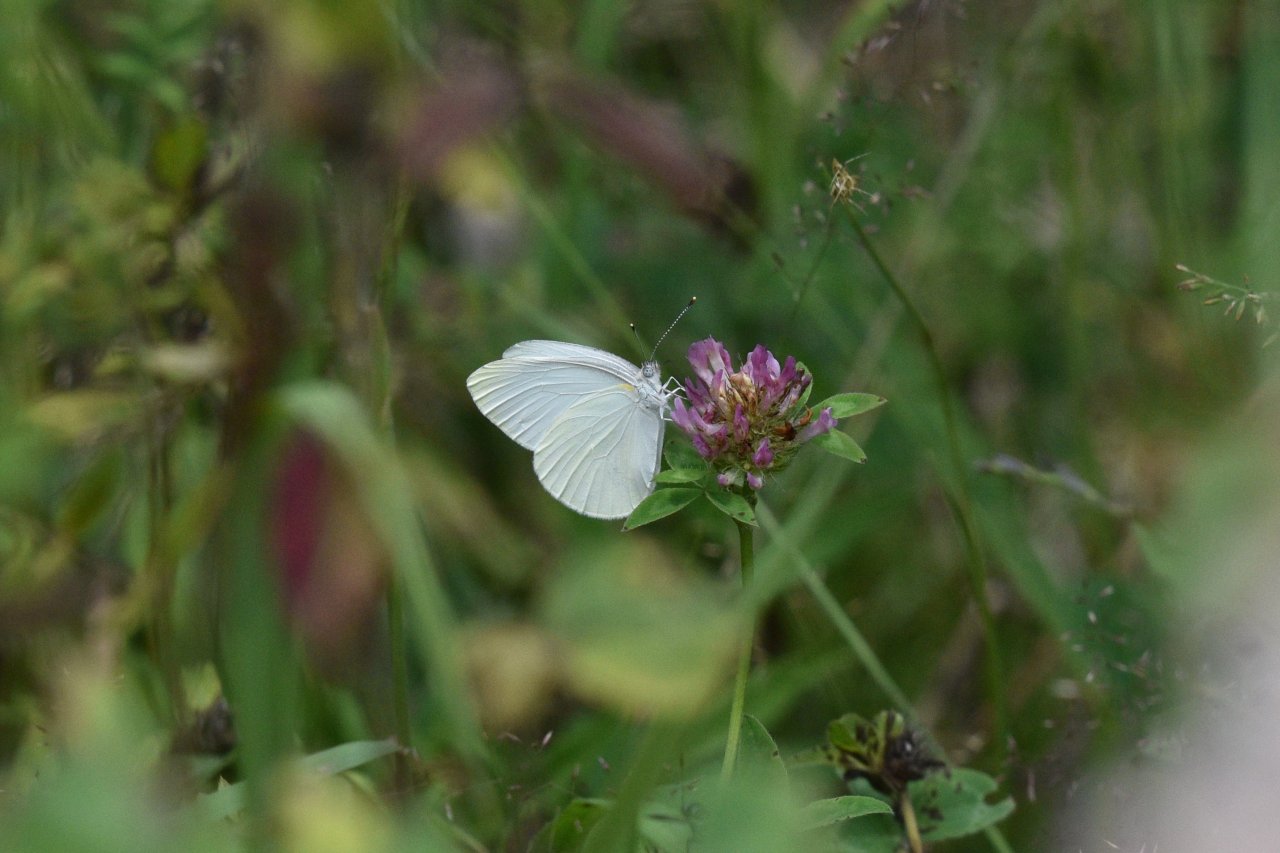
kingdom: Animalia
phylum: Arthropoda
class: Insecta
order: Lepidoptera
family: Pieridae
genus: Pieris
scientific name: Pieris oleracea
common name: Mustard White
